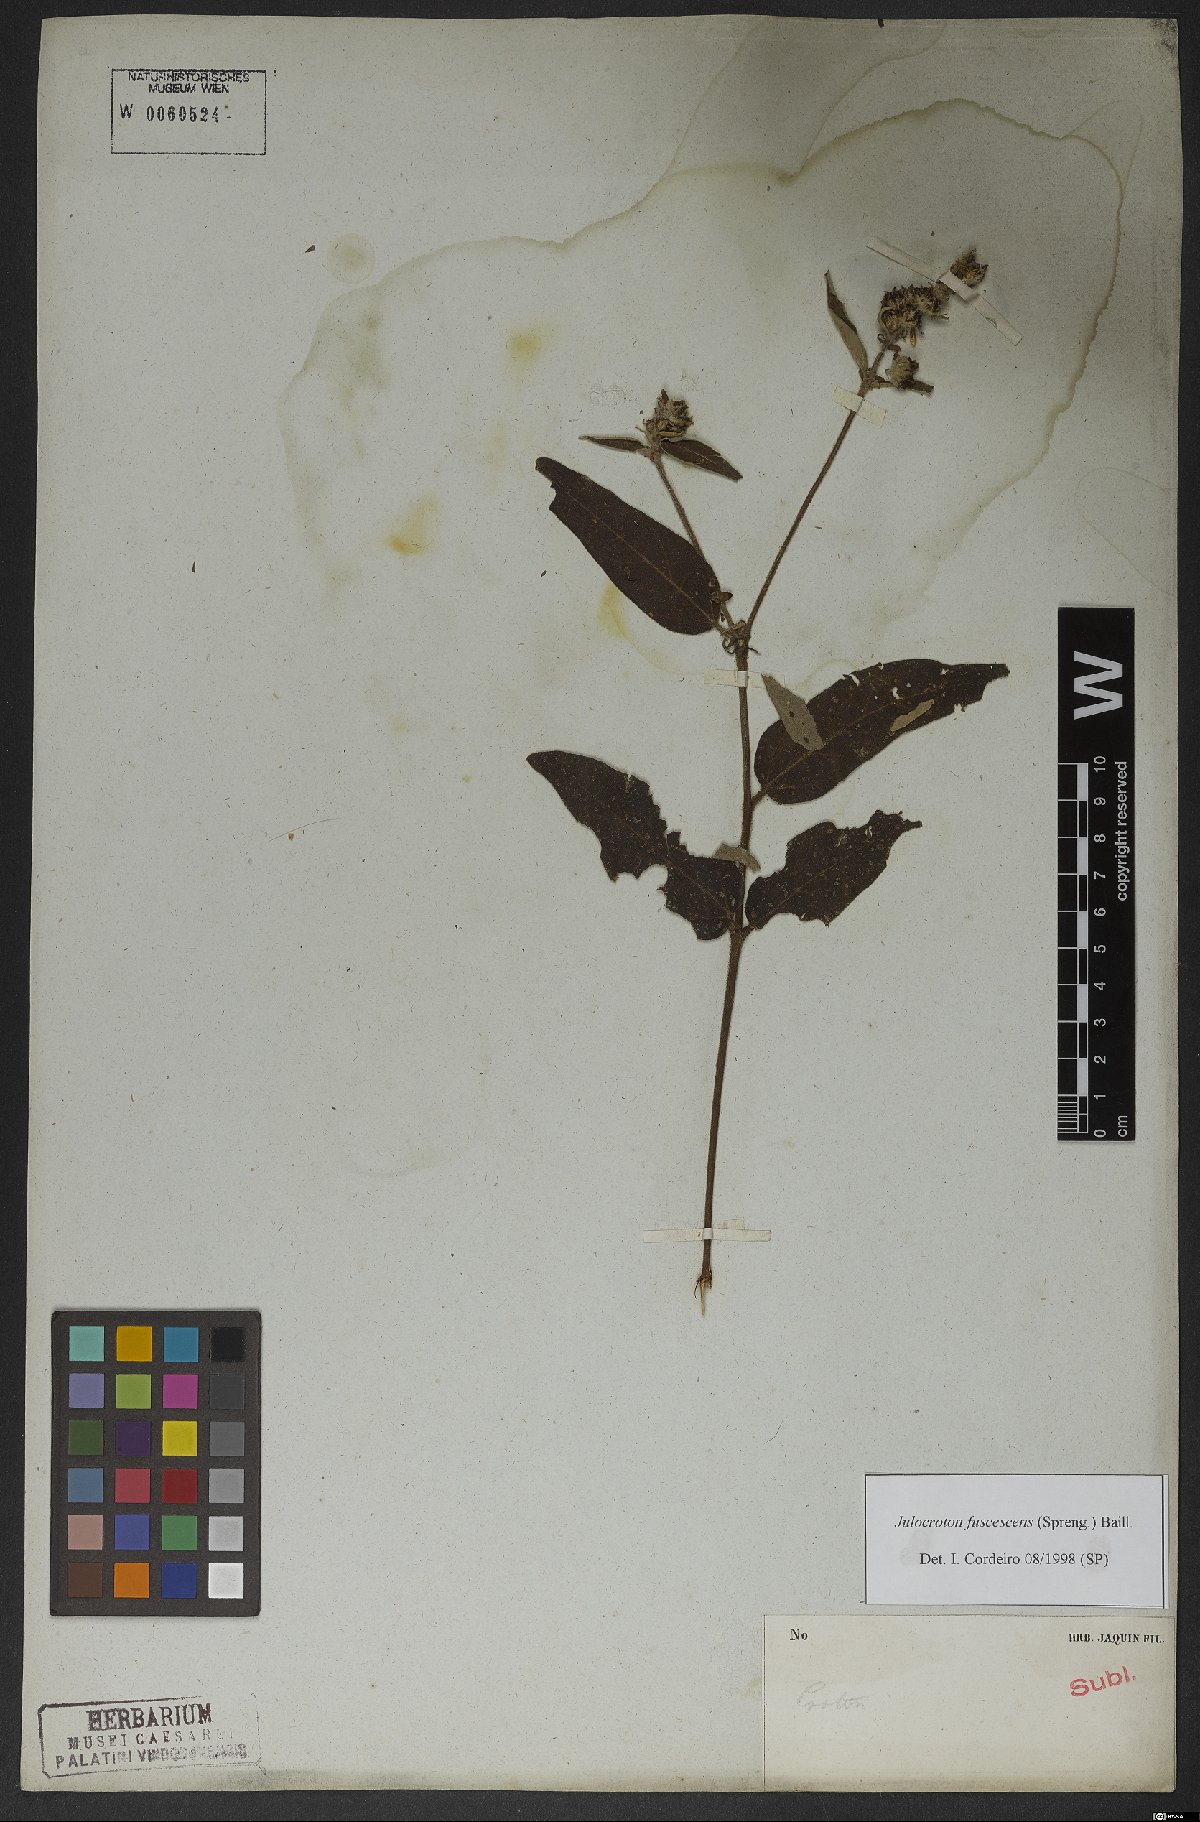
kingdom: Plantae
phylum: Tracheophyta
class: Magnoliopsida
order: Malpighiales
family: Euphorbiaceae
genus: Croton
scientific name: Croton gnaphaloides
